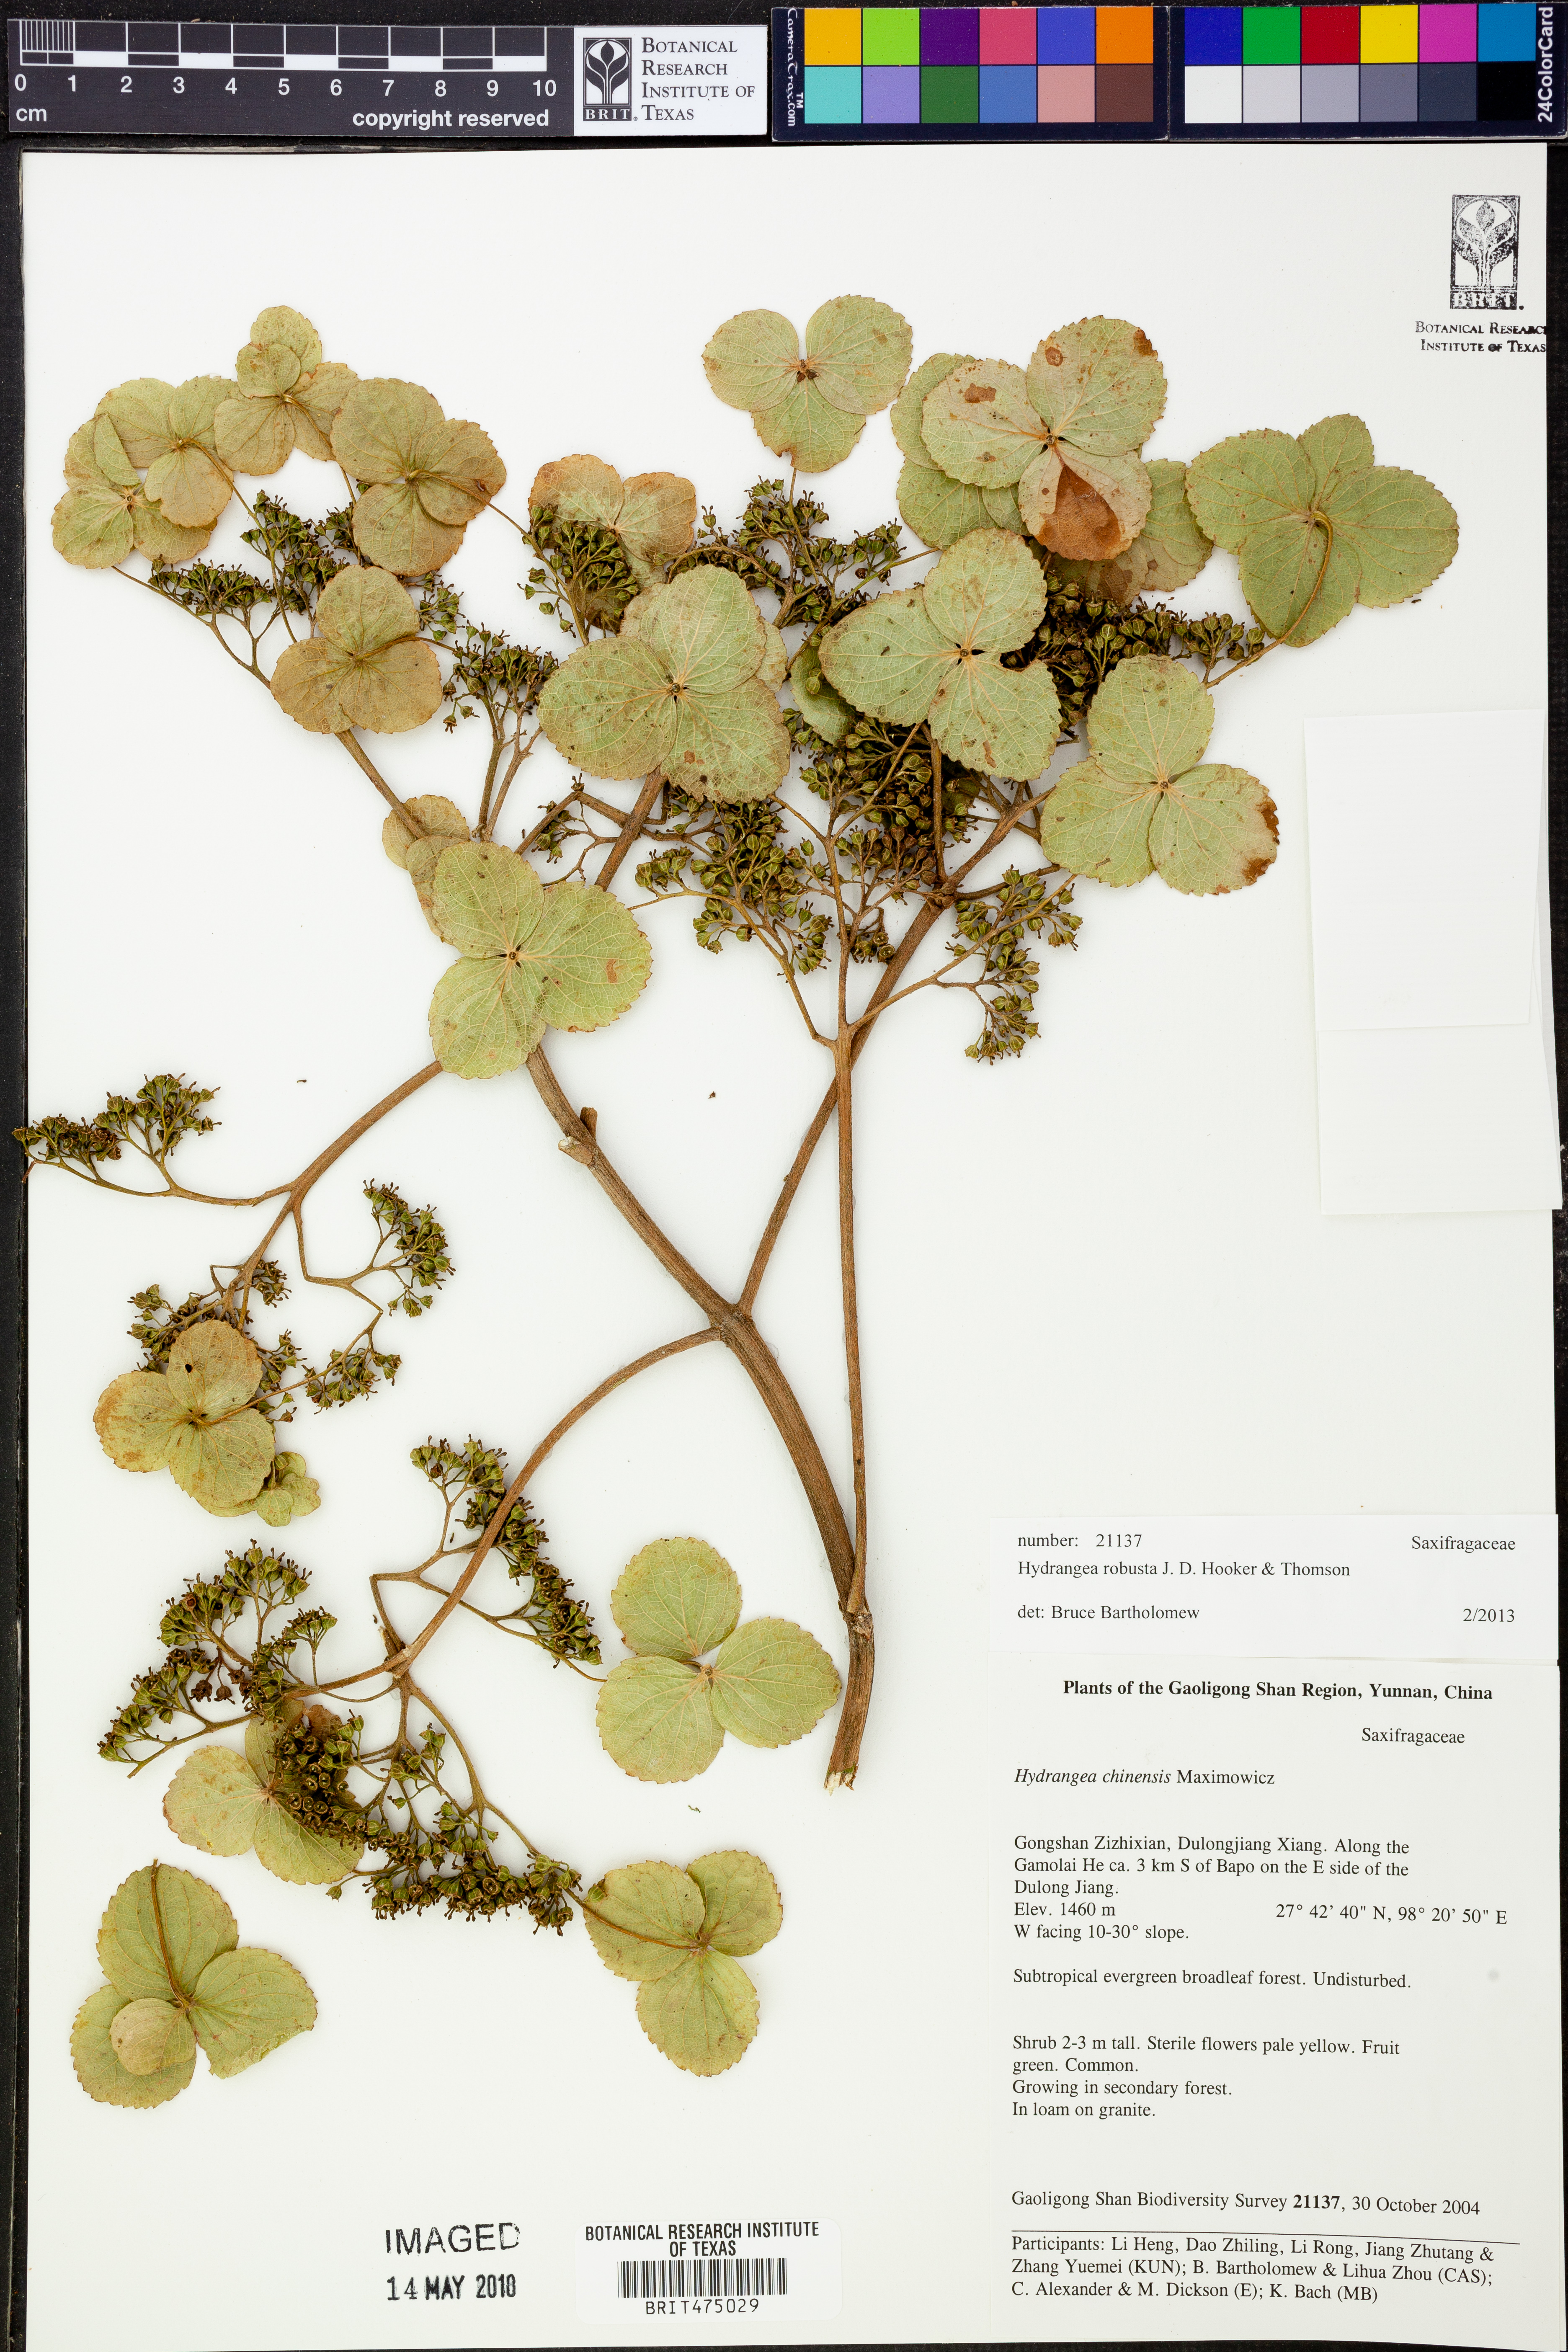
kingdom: Plantae
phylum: Tracheophyta
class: Magnoliopsida
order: Cornales
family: Hydrangeaceae
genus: Hydrangea
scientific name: Hydrangea robusta
